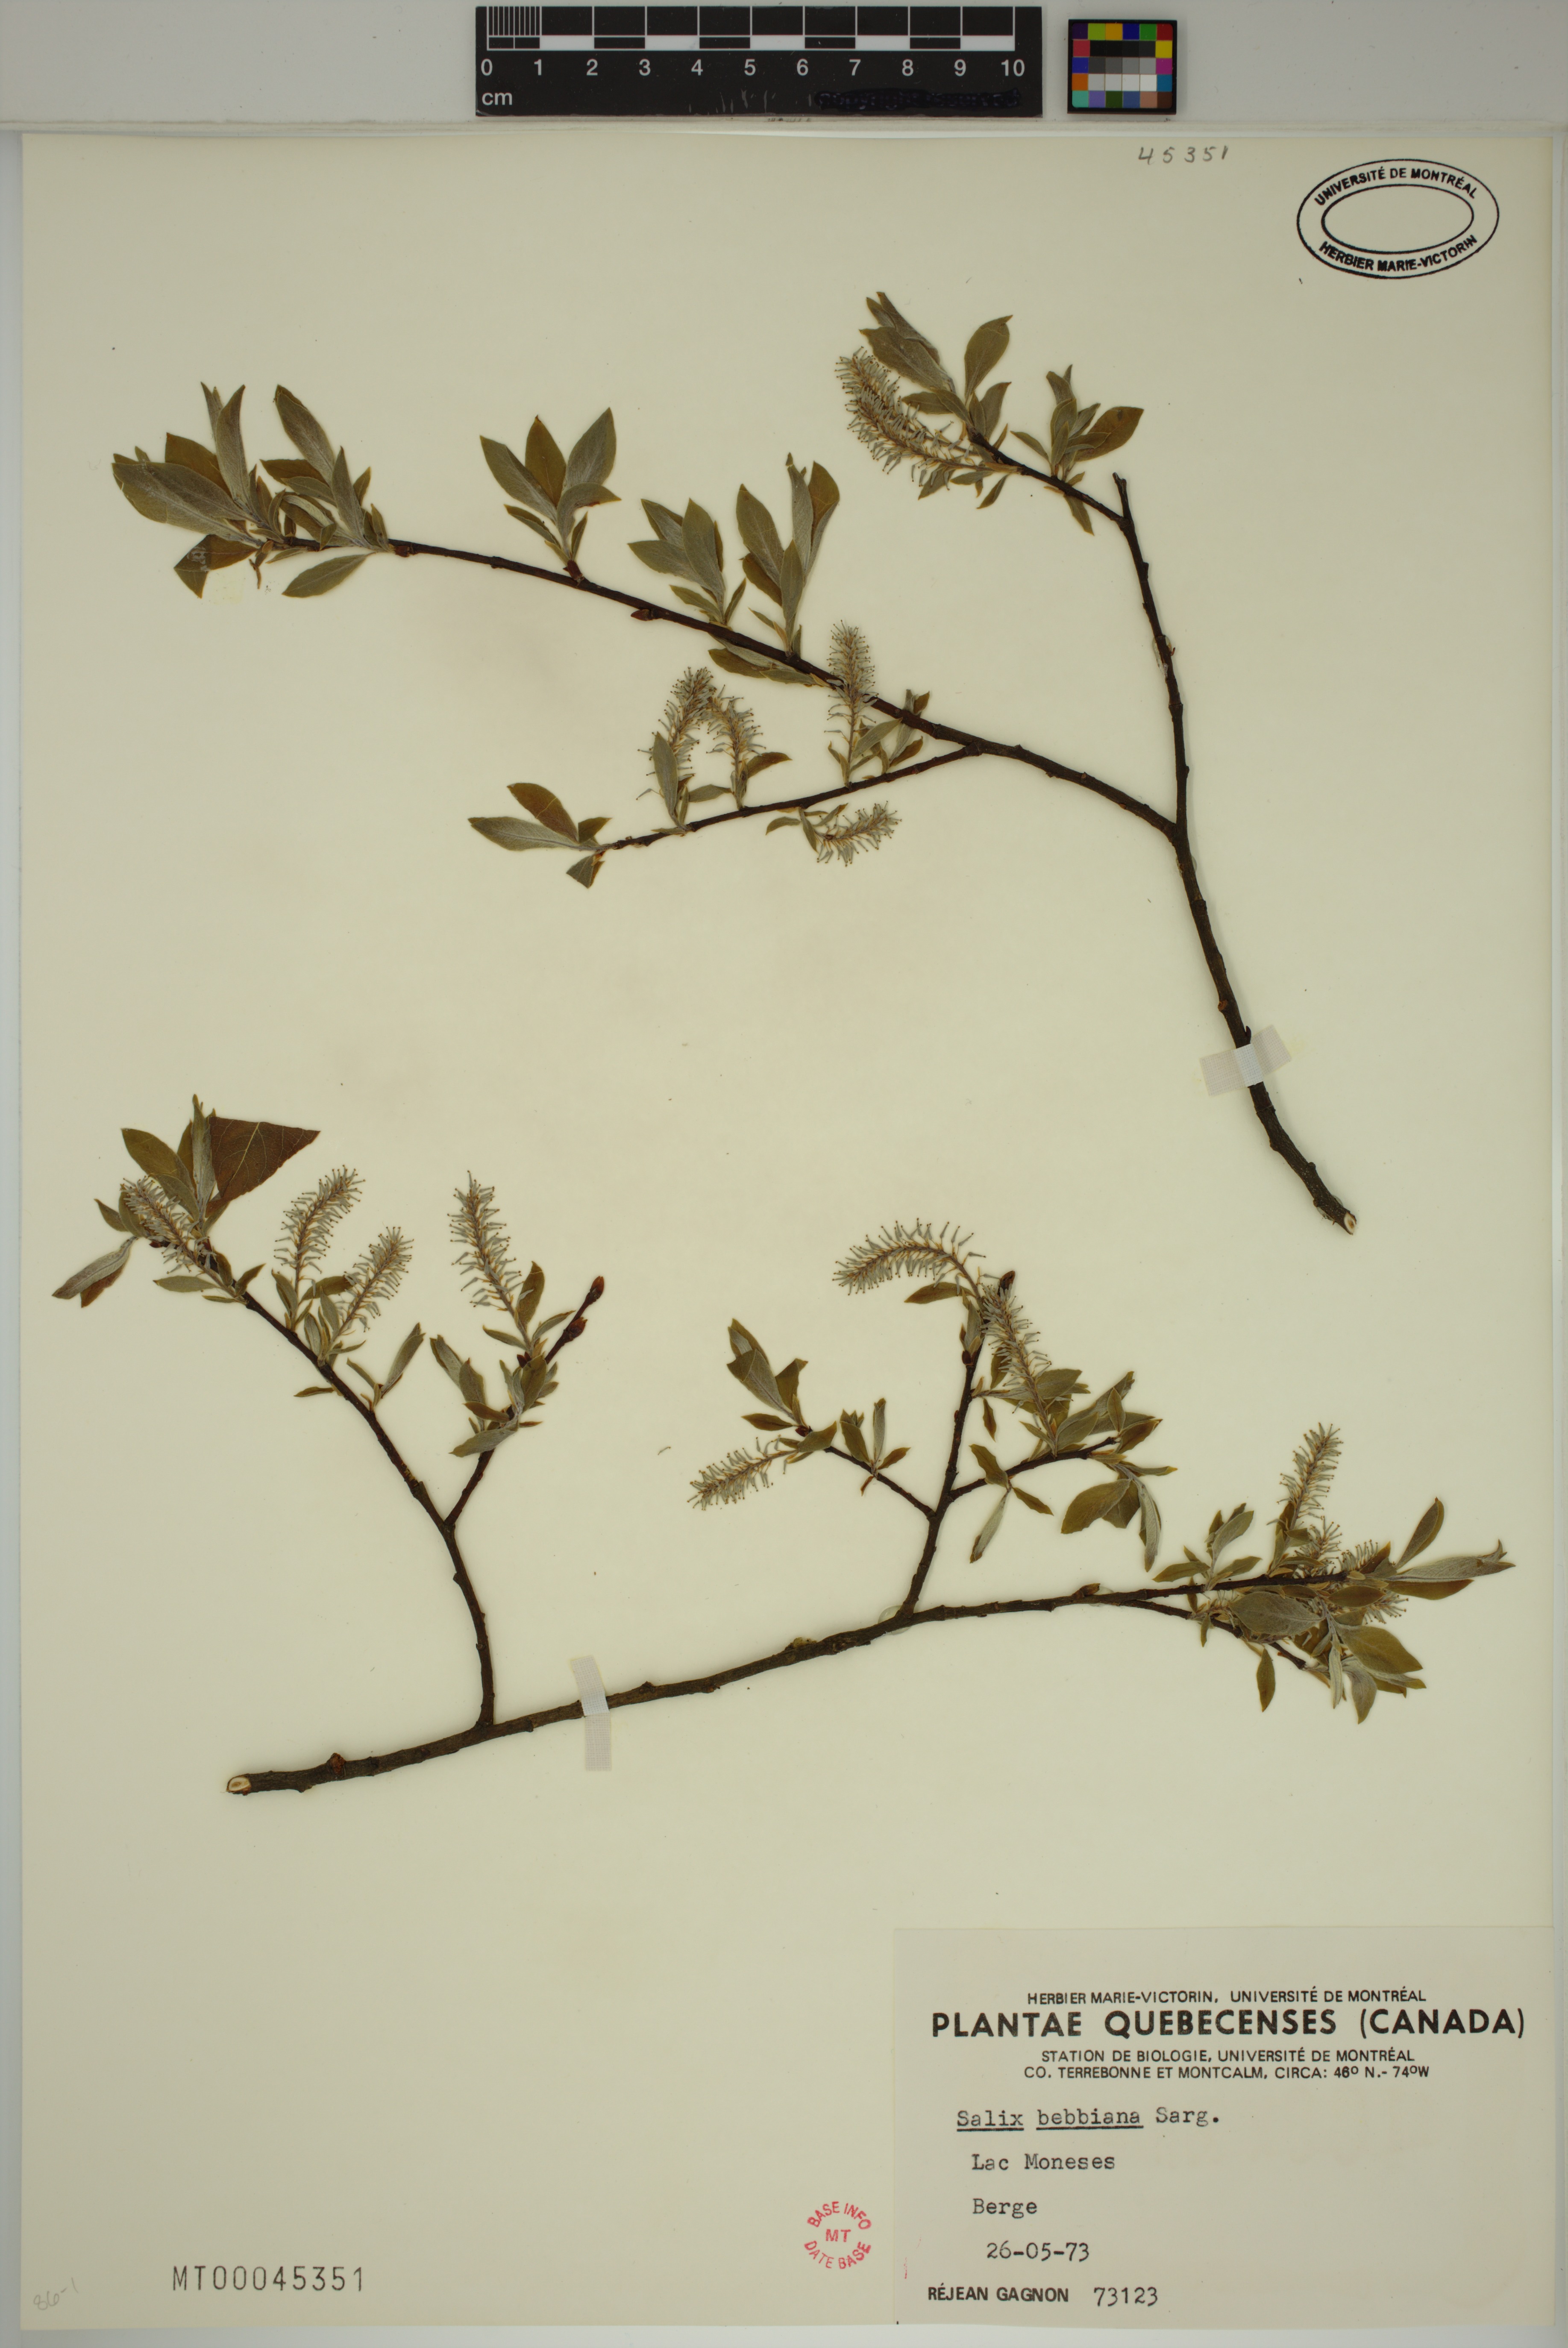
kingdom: Plantae
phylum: Tracheophyta
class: Magnoliopsida
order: Malpighiales
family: Salicaceae
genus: Salix
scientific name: Salix bebbiana
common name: Bebb's willow
